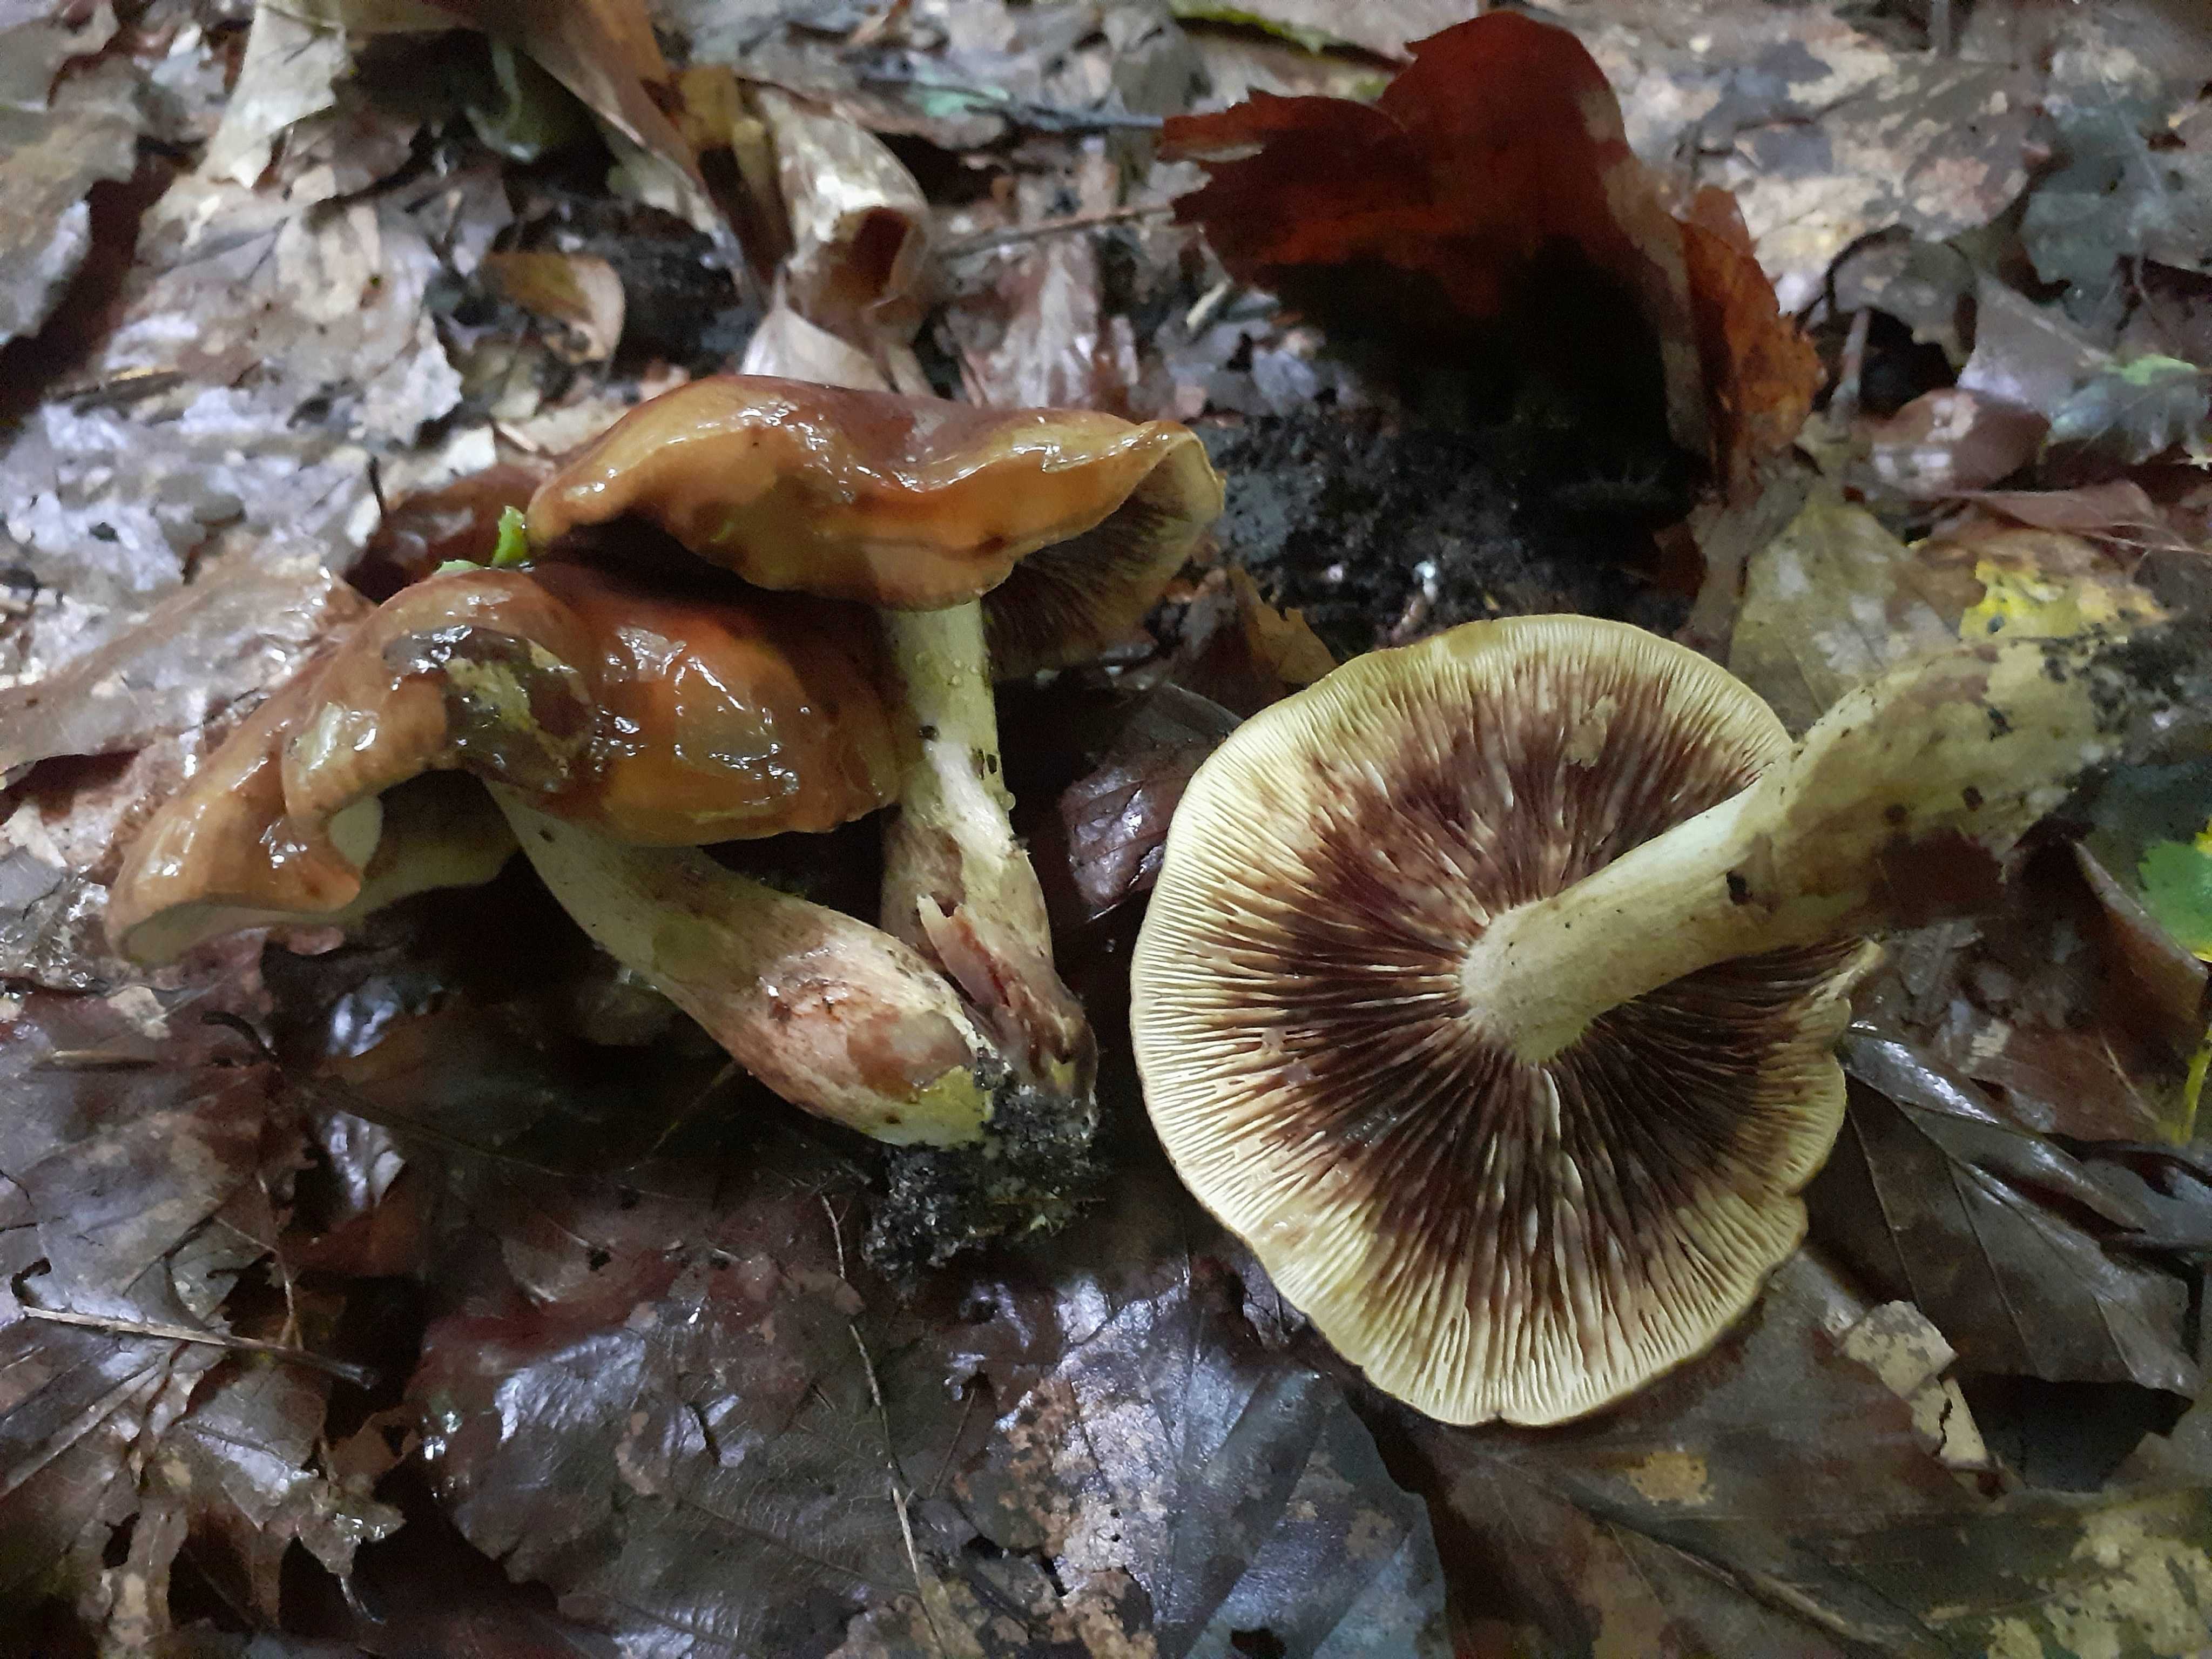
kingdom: Fungi
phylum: Basidiomycota
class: Agaricomycetes
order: Agaricales
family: Tricholomataceae
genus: Tricholoma
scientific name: Tricholoma ustale
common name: sveden ridderhat
